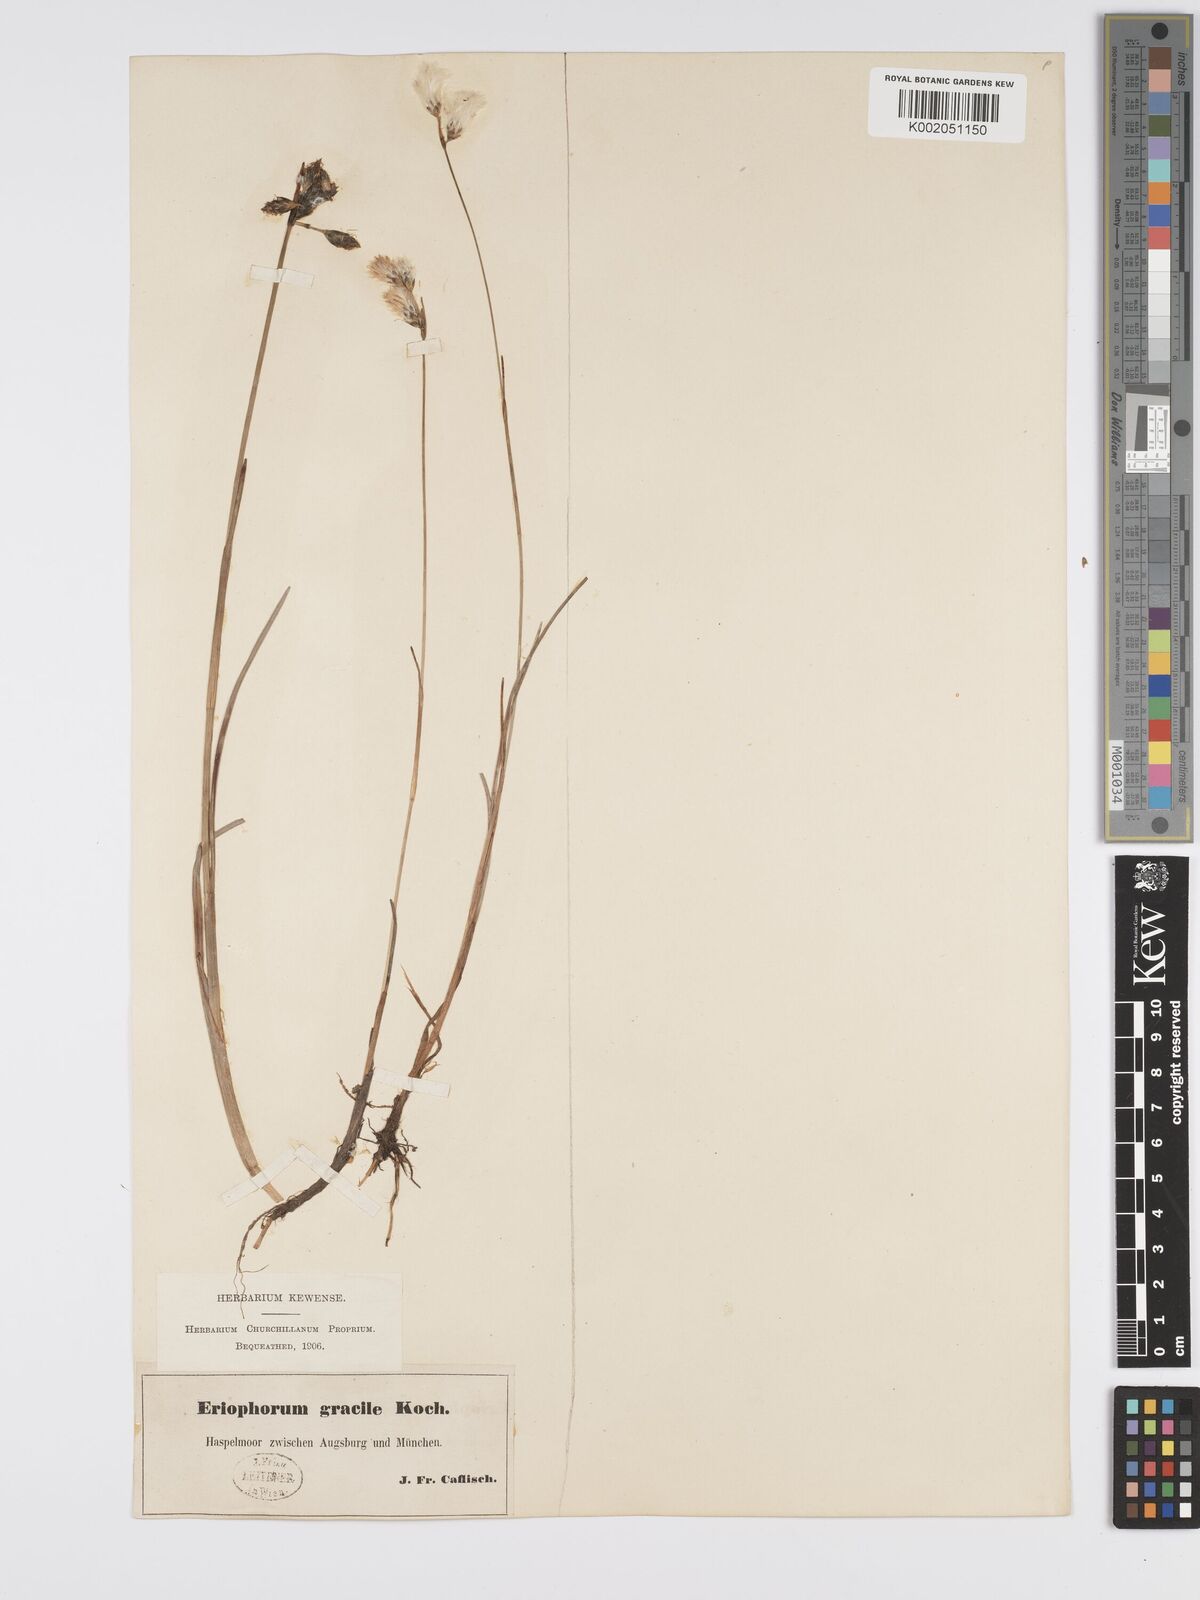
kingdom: Plantae
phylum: Tracheophyta
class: Liliopsida
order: Poales
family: Cyperaceae
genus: Eriophorum
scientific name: Eriophorum gracile
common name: Slender cottongrass
